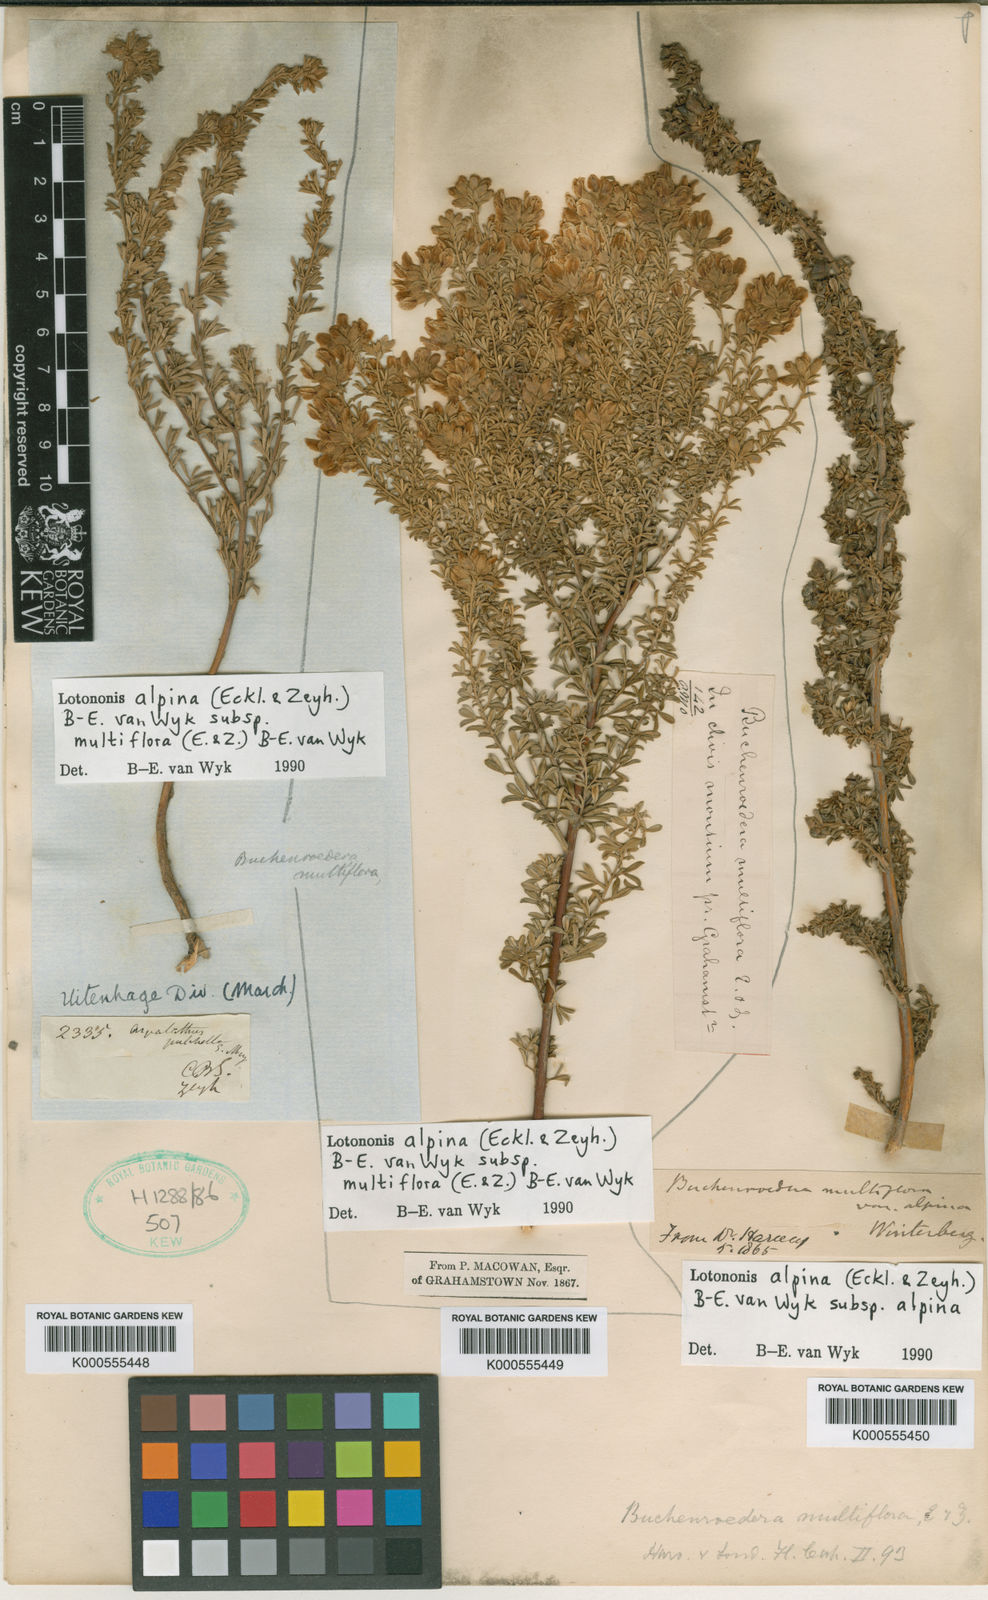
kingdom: Plantae
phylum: Tracheophyta
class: Magnoliopsida
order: Fabales
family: Fabaceae
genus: Lotononis
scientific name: Lotononis alpina
